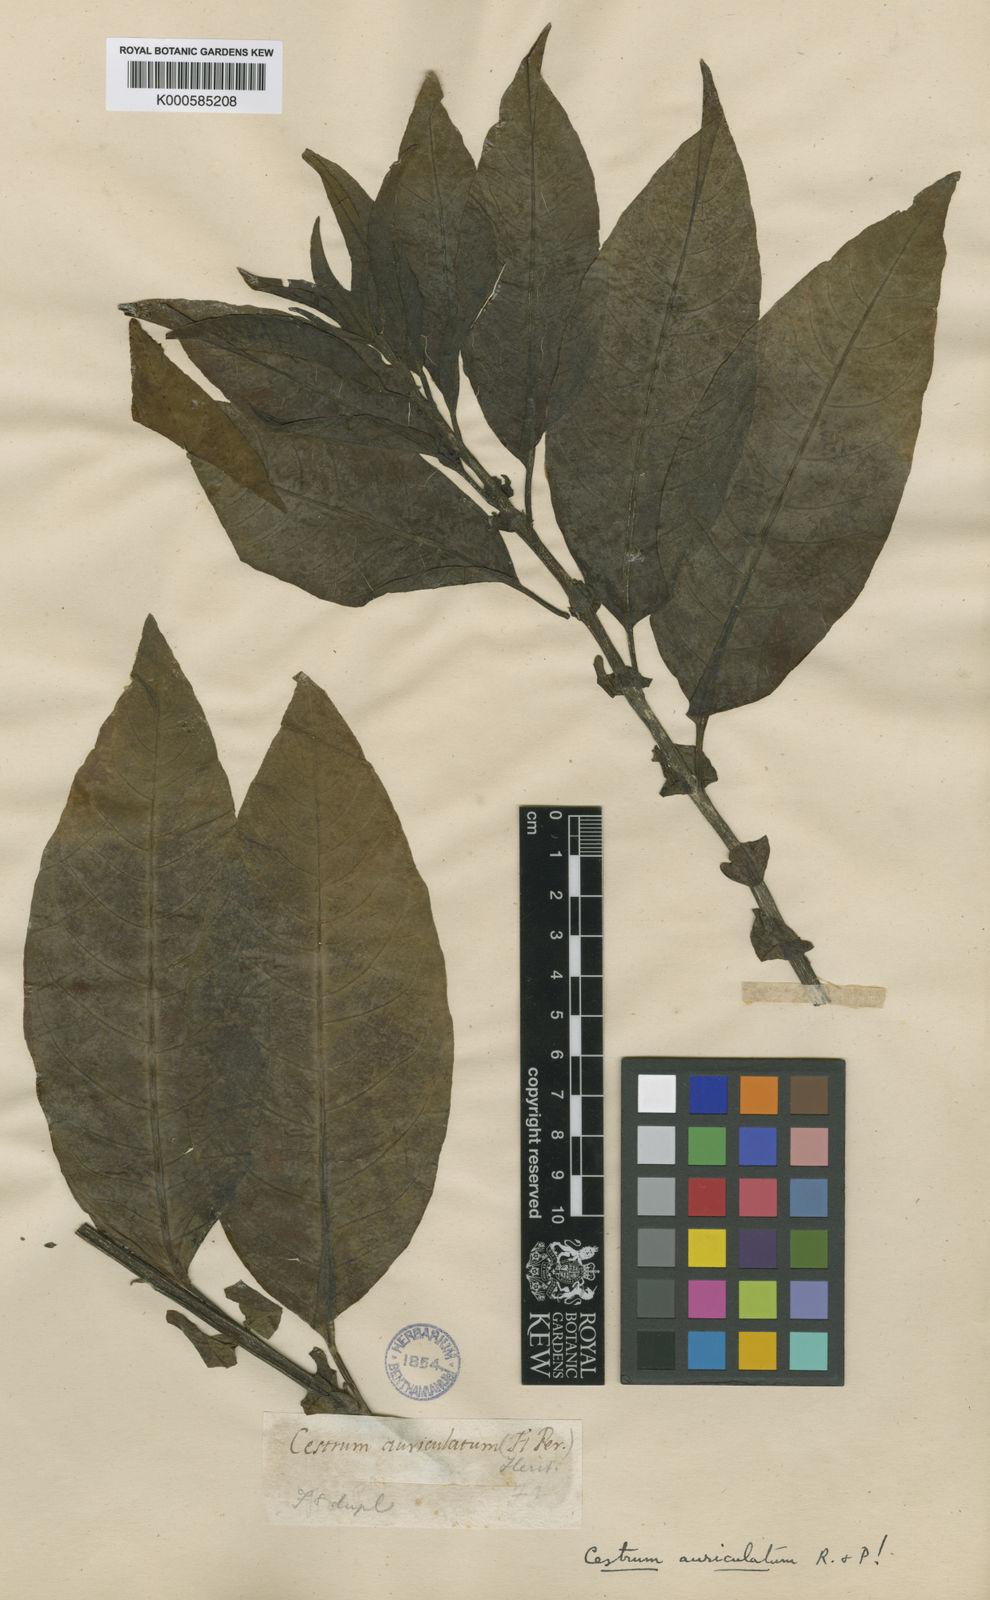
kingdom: Plantae
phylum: Tracheophyta
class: Magnoliopsida
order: Solanales
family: Solanaceae
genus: Cestrum
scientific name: Cestrum
